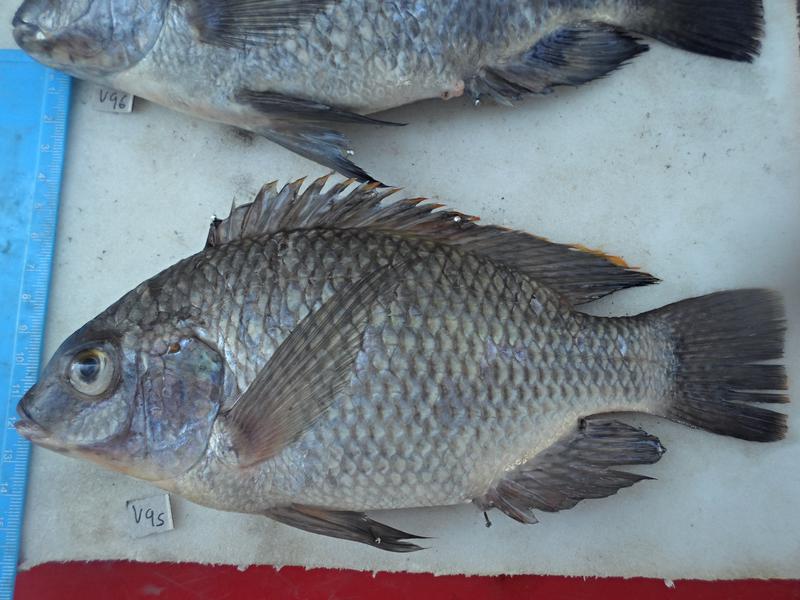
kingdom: Animalia
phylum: Chordata
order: Perciformes
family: Cichlidae
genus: Oreochromis
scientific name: Oreochromis variabilis
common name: Victoria tilapia
